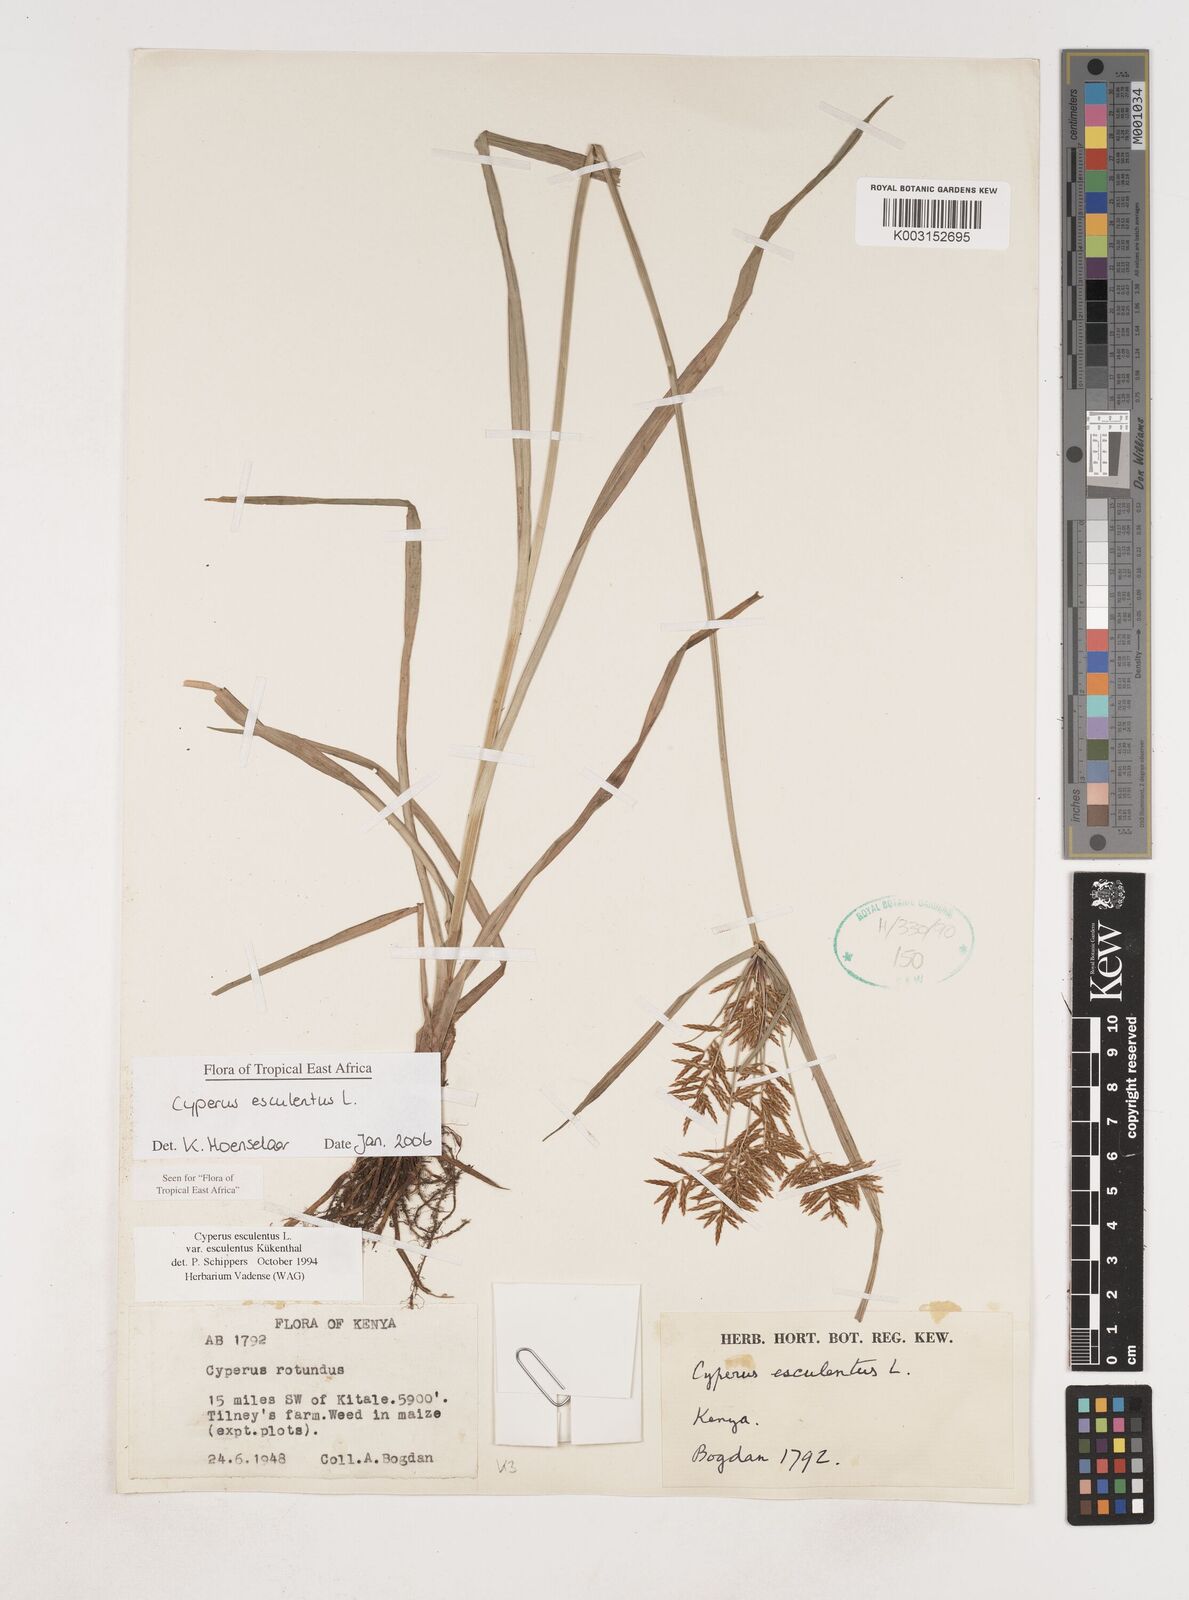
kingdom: Plantae
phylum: Tracheophyta
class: Liliopsida
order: Poales
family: Cyperaceae
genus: Cyperus
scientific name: Cyperus esculentus
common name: Yellow nutsedge
